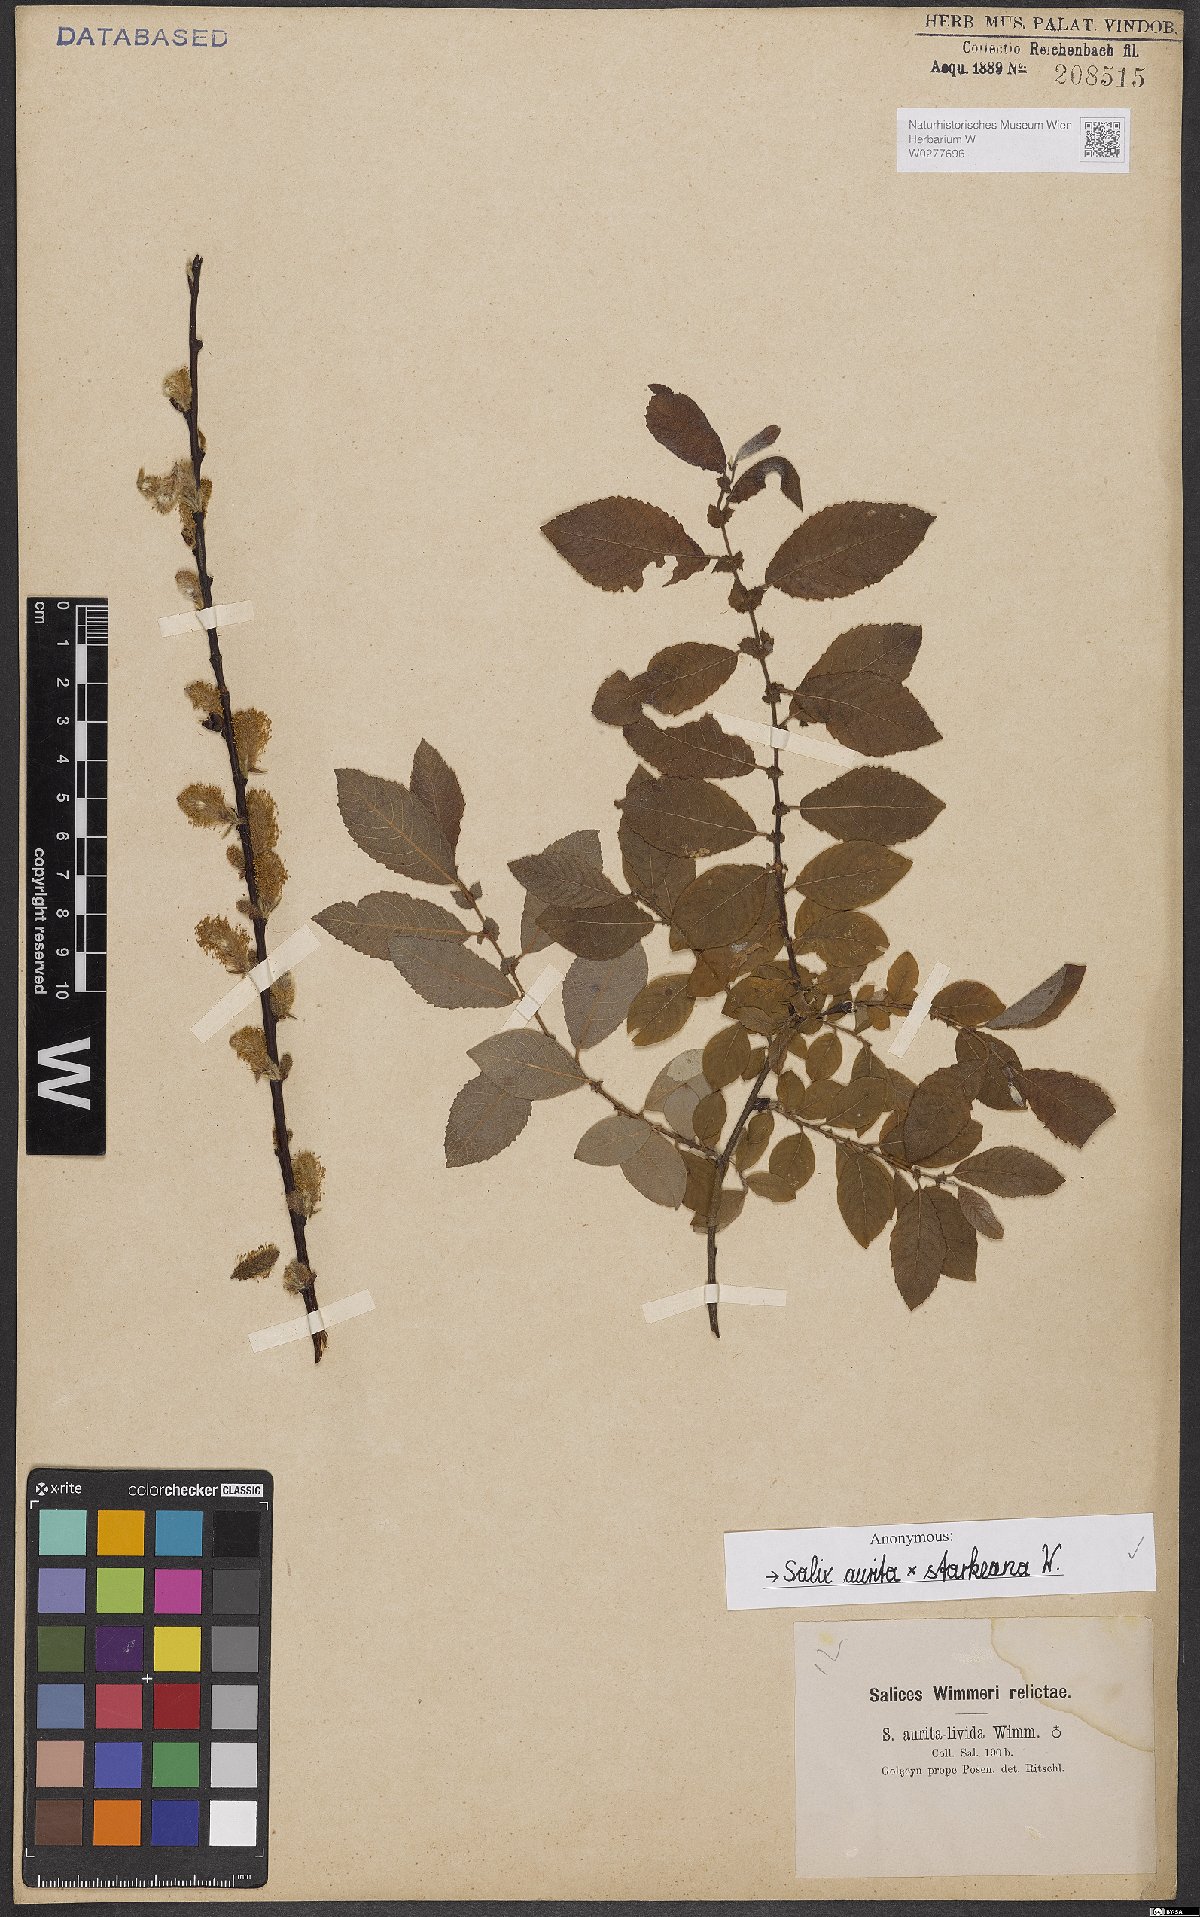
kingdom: Plantae
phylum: Tracheophyta
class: Magnoliopsida
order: Malpighiales
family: Salicaceae
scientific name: Salicaceae
